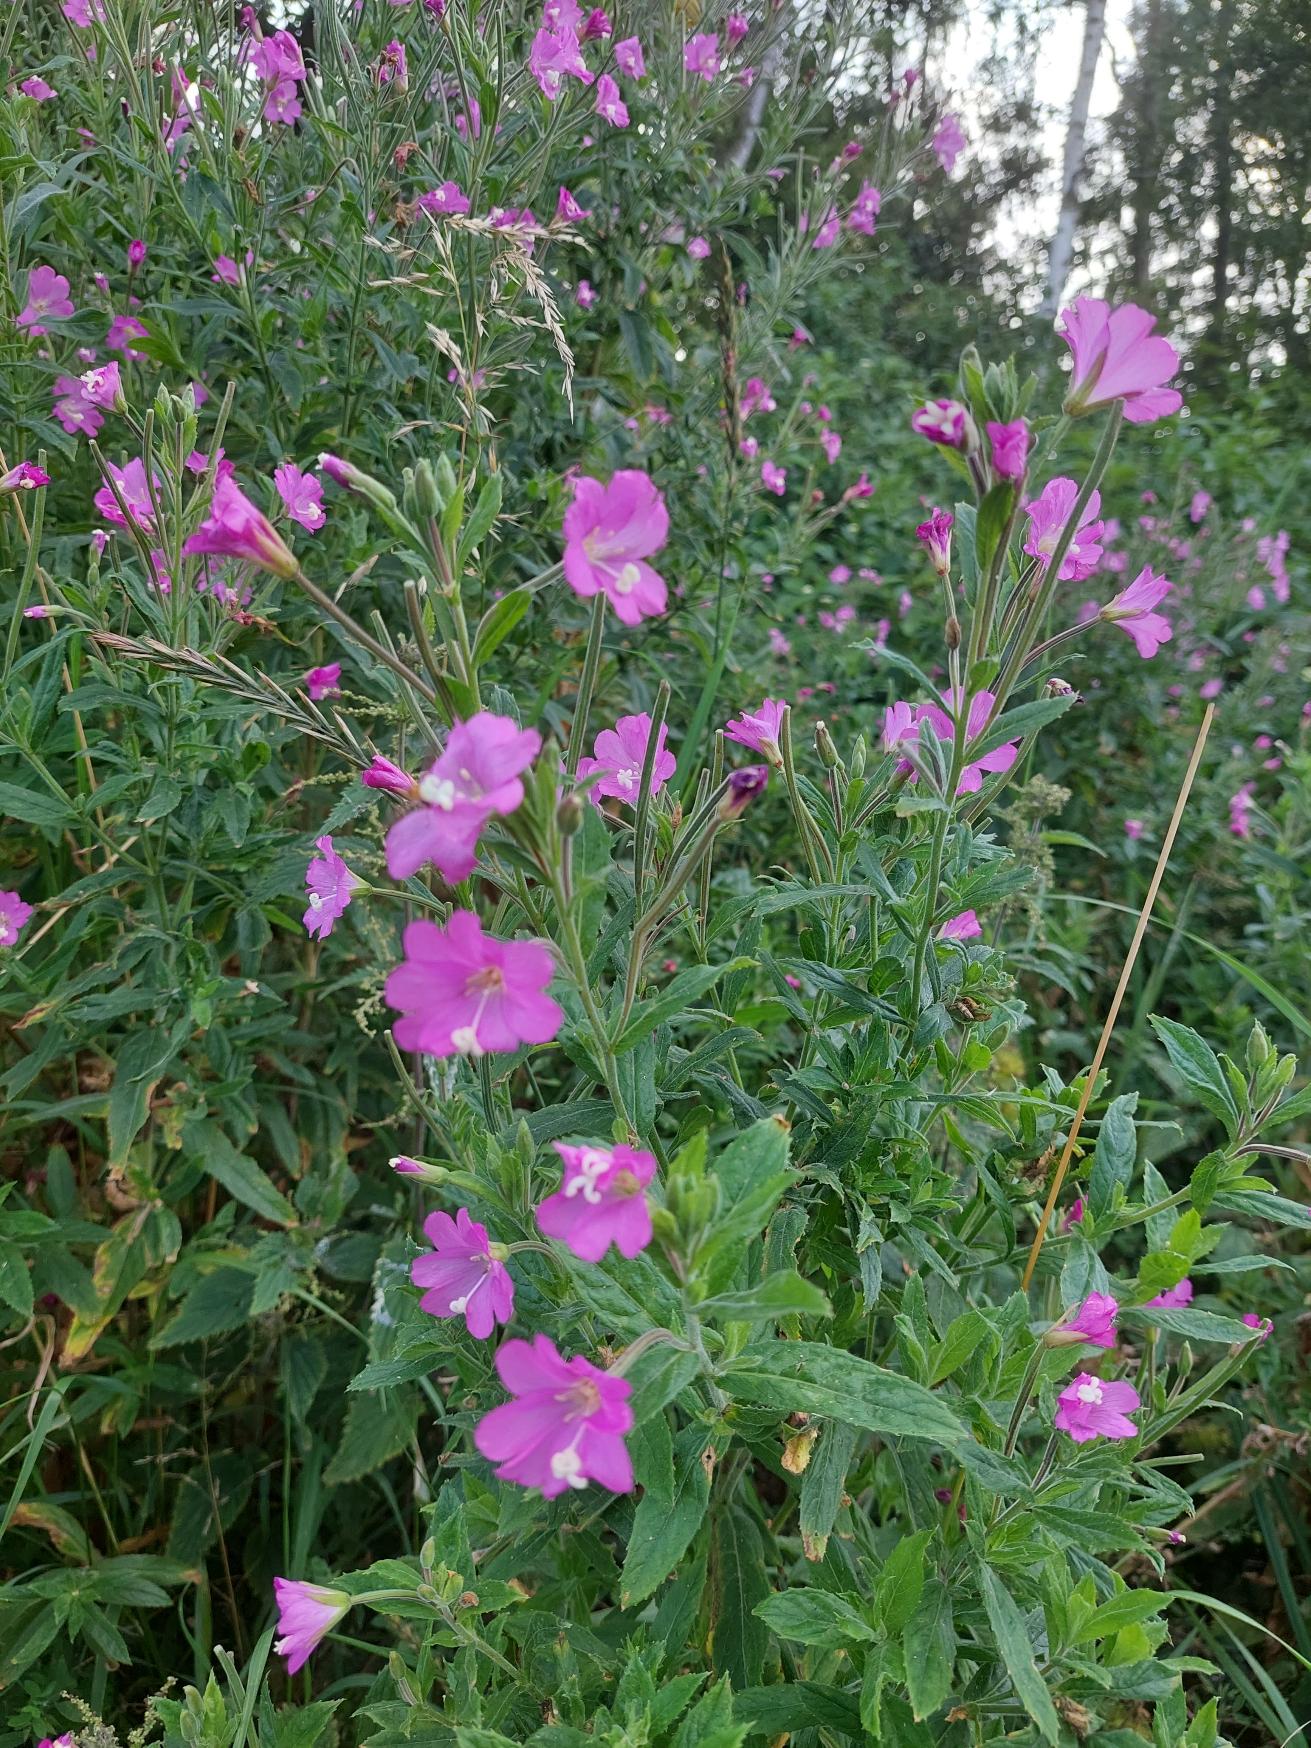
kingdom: Plantae
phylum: Tracheophyta
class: Magnoliopsida
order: Myrtales
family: Onagraceae
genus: Epilobium
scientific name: Epilobium hirsutum
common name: Lådden dueurt
